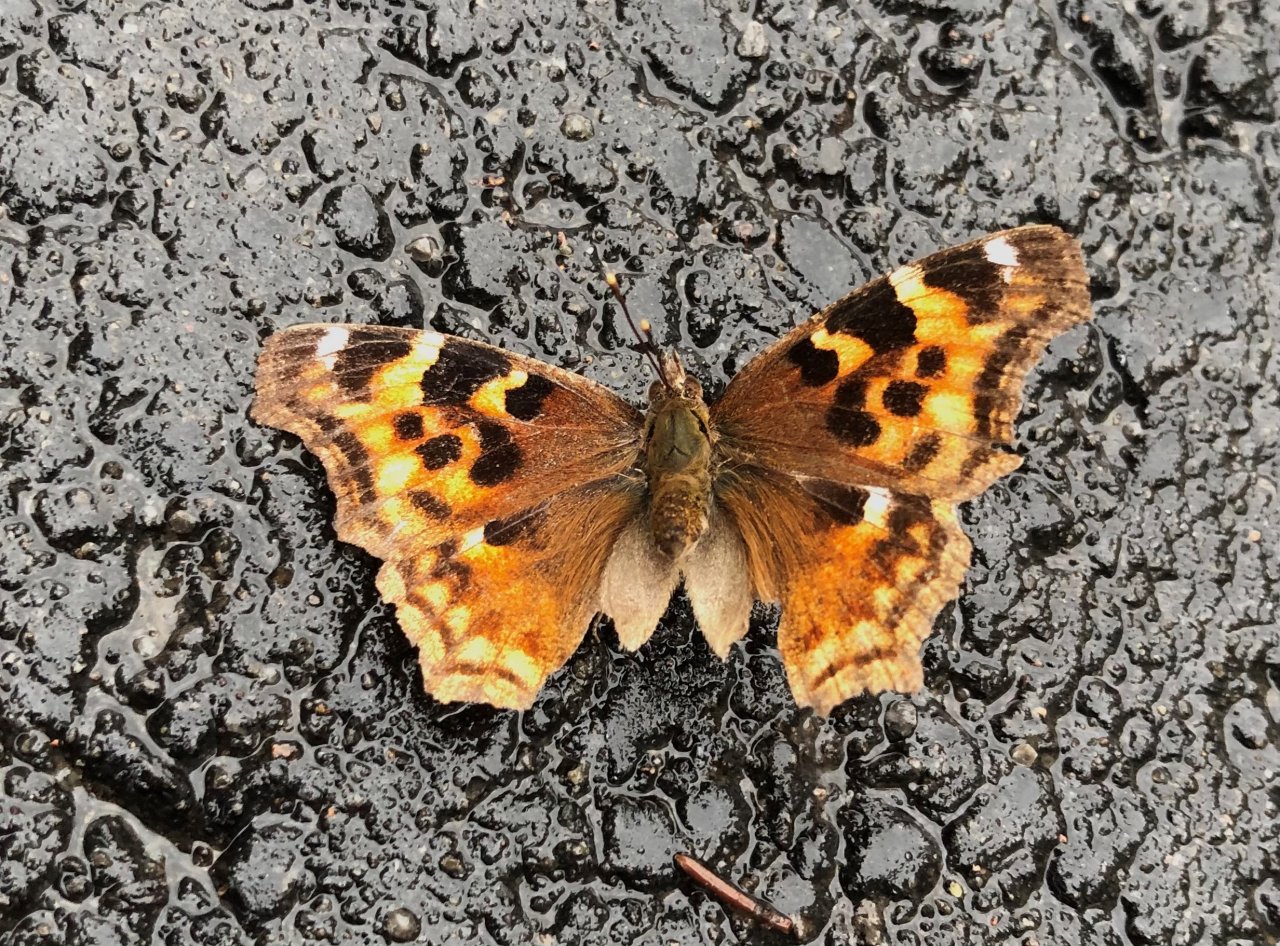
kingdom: Animalia
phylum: Arthropoda
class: Insecta
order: Lepidoptera
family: Nymphalidae
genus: Polygonia
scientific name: Polygonia vaualbum
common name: Compton Tortoiseshell
